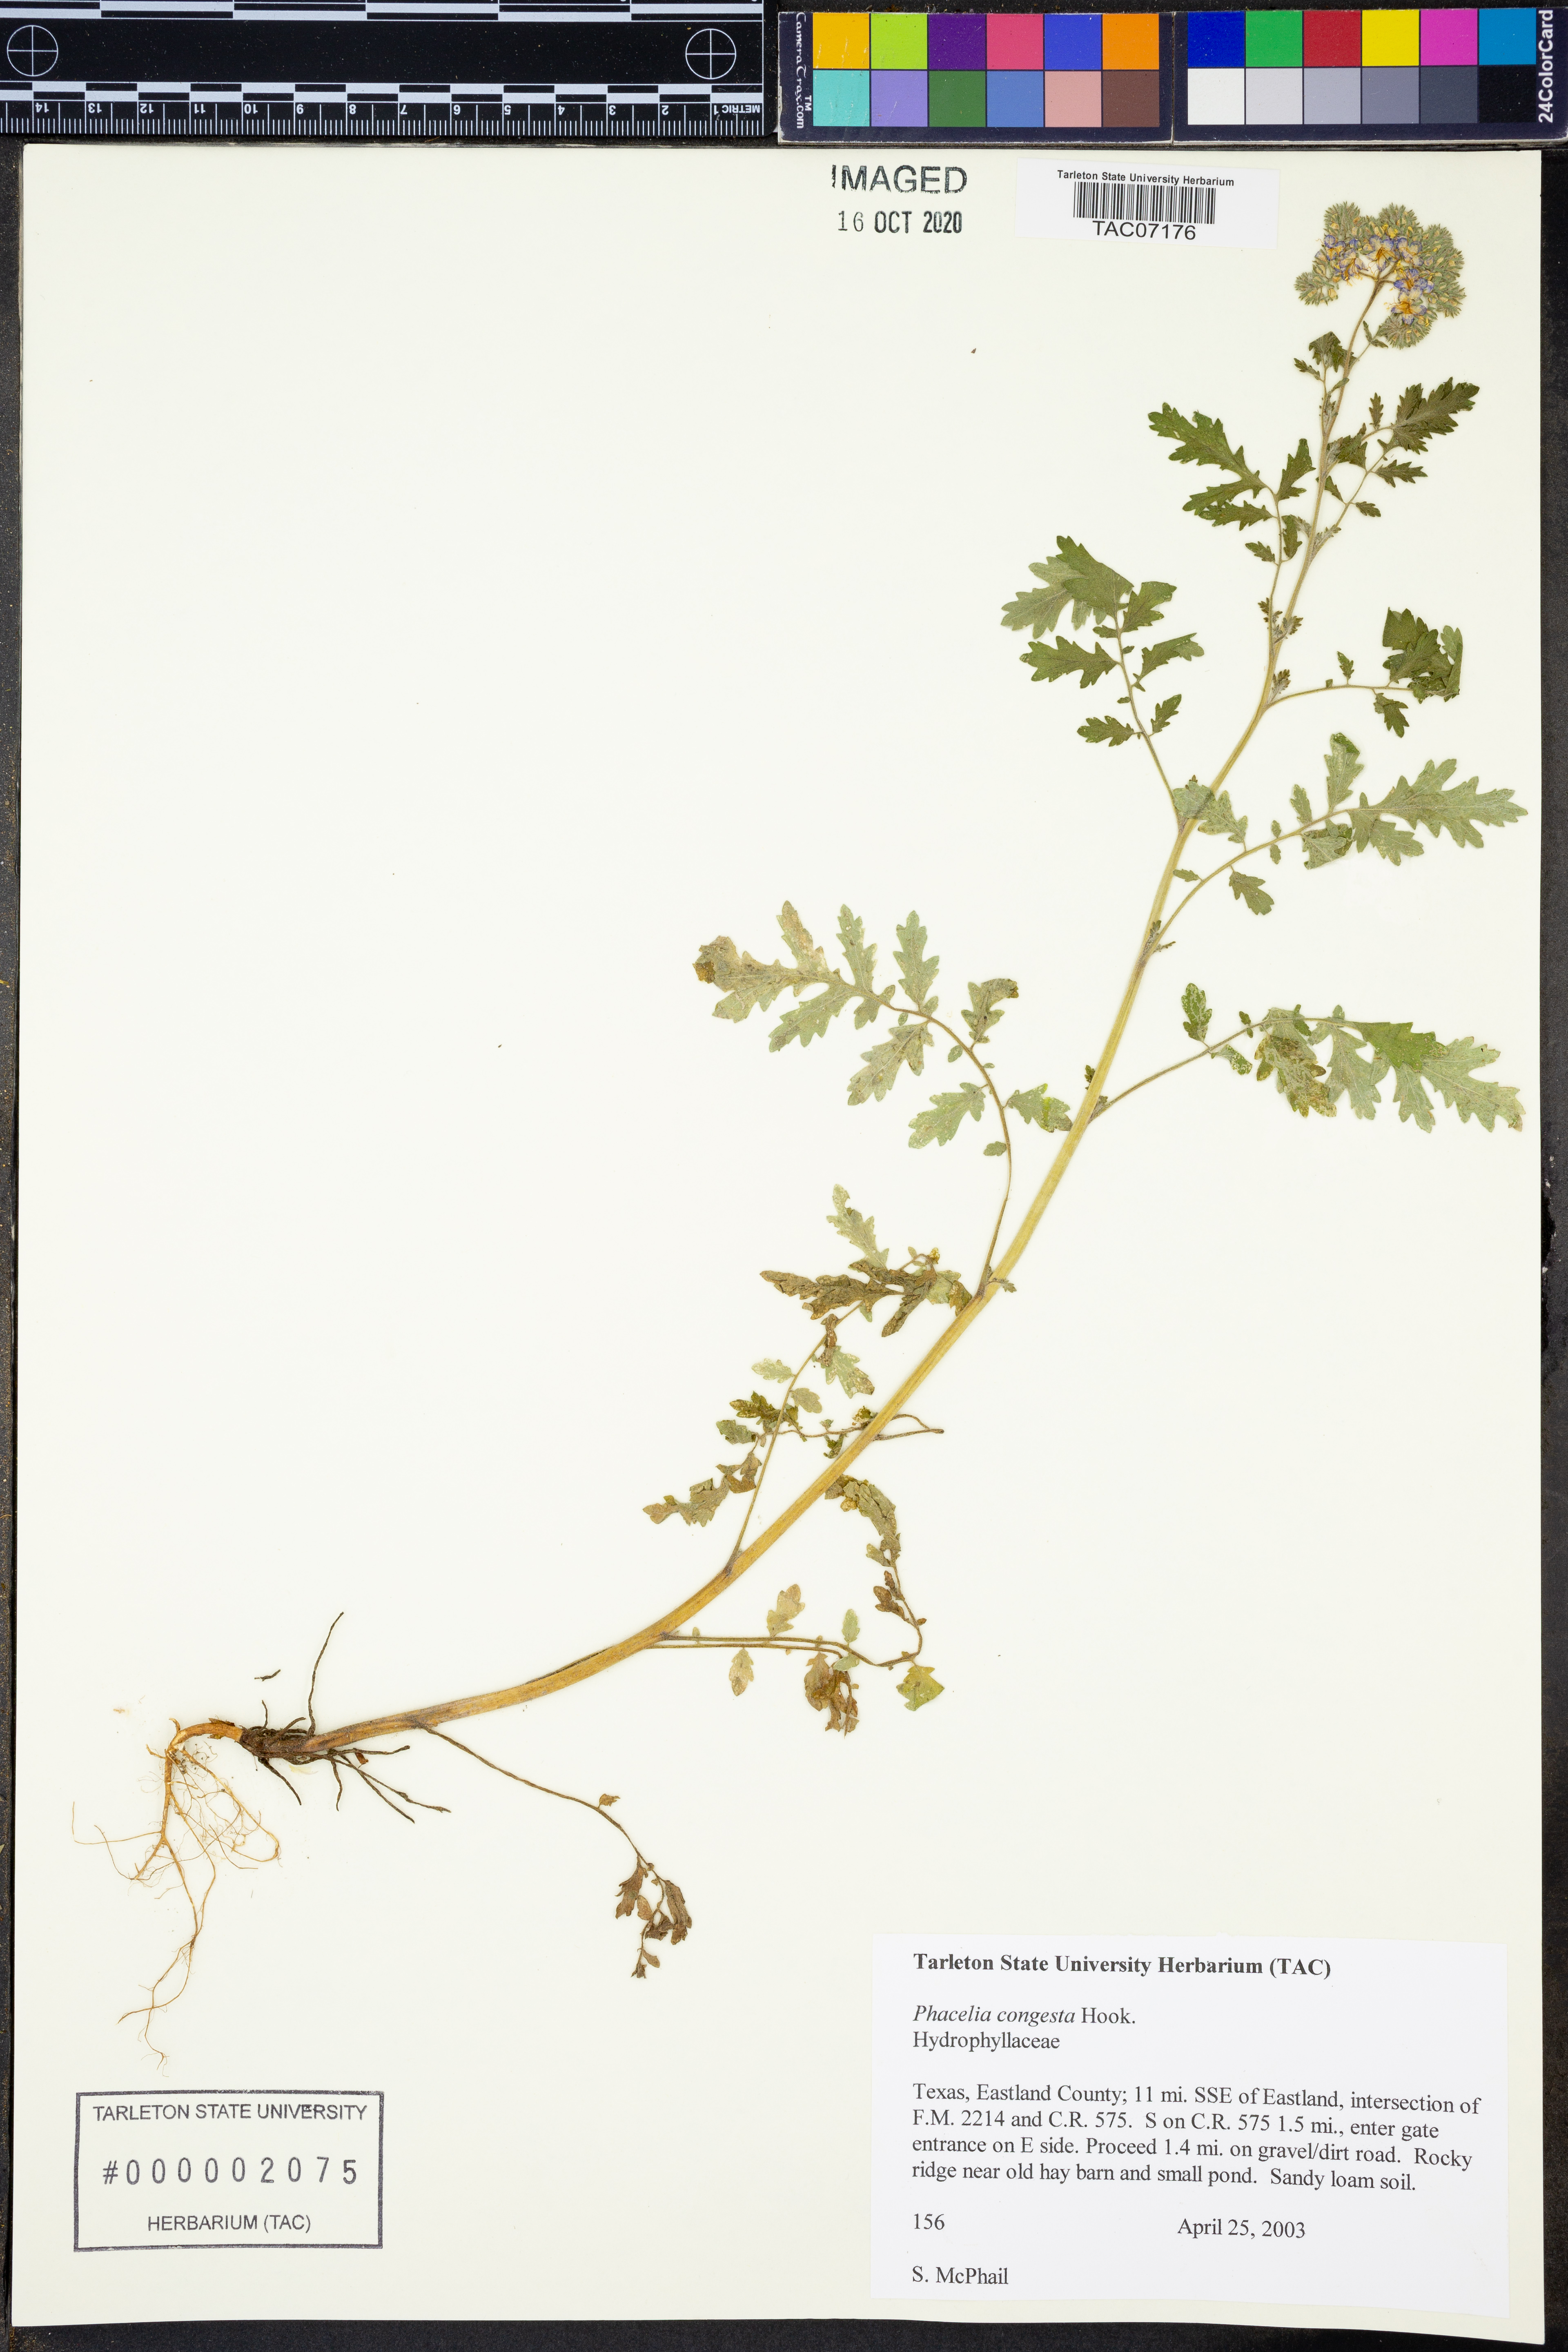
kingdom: Plantae
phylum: Tracheophyta
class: Magnoliopsida
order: Boraginales
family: Hydrophyllaceae
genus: Phacelia
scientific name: Phacelia congesta
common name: Blue curls
